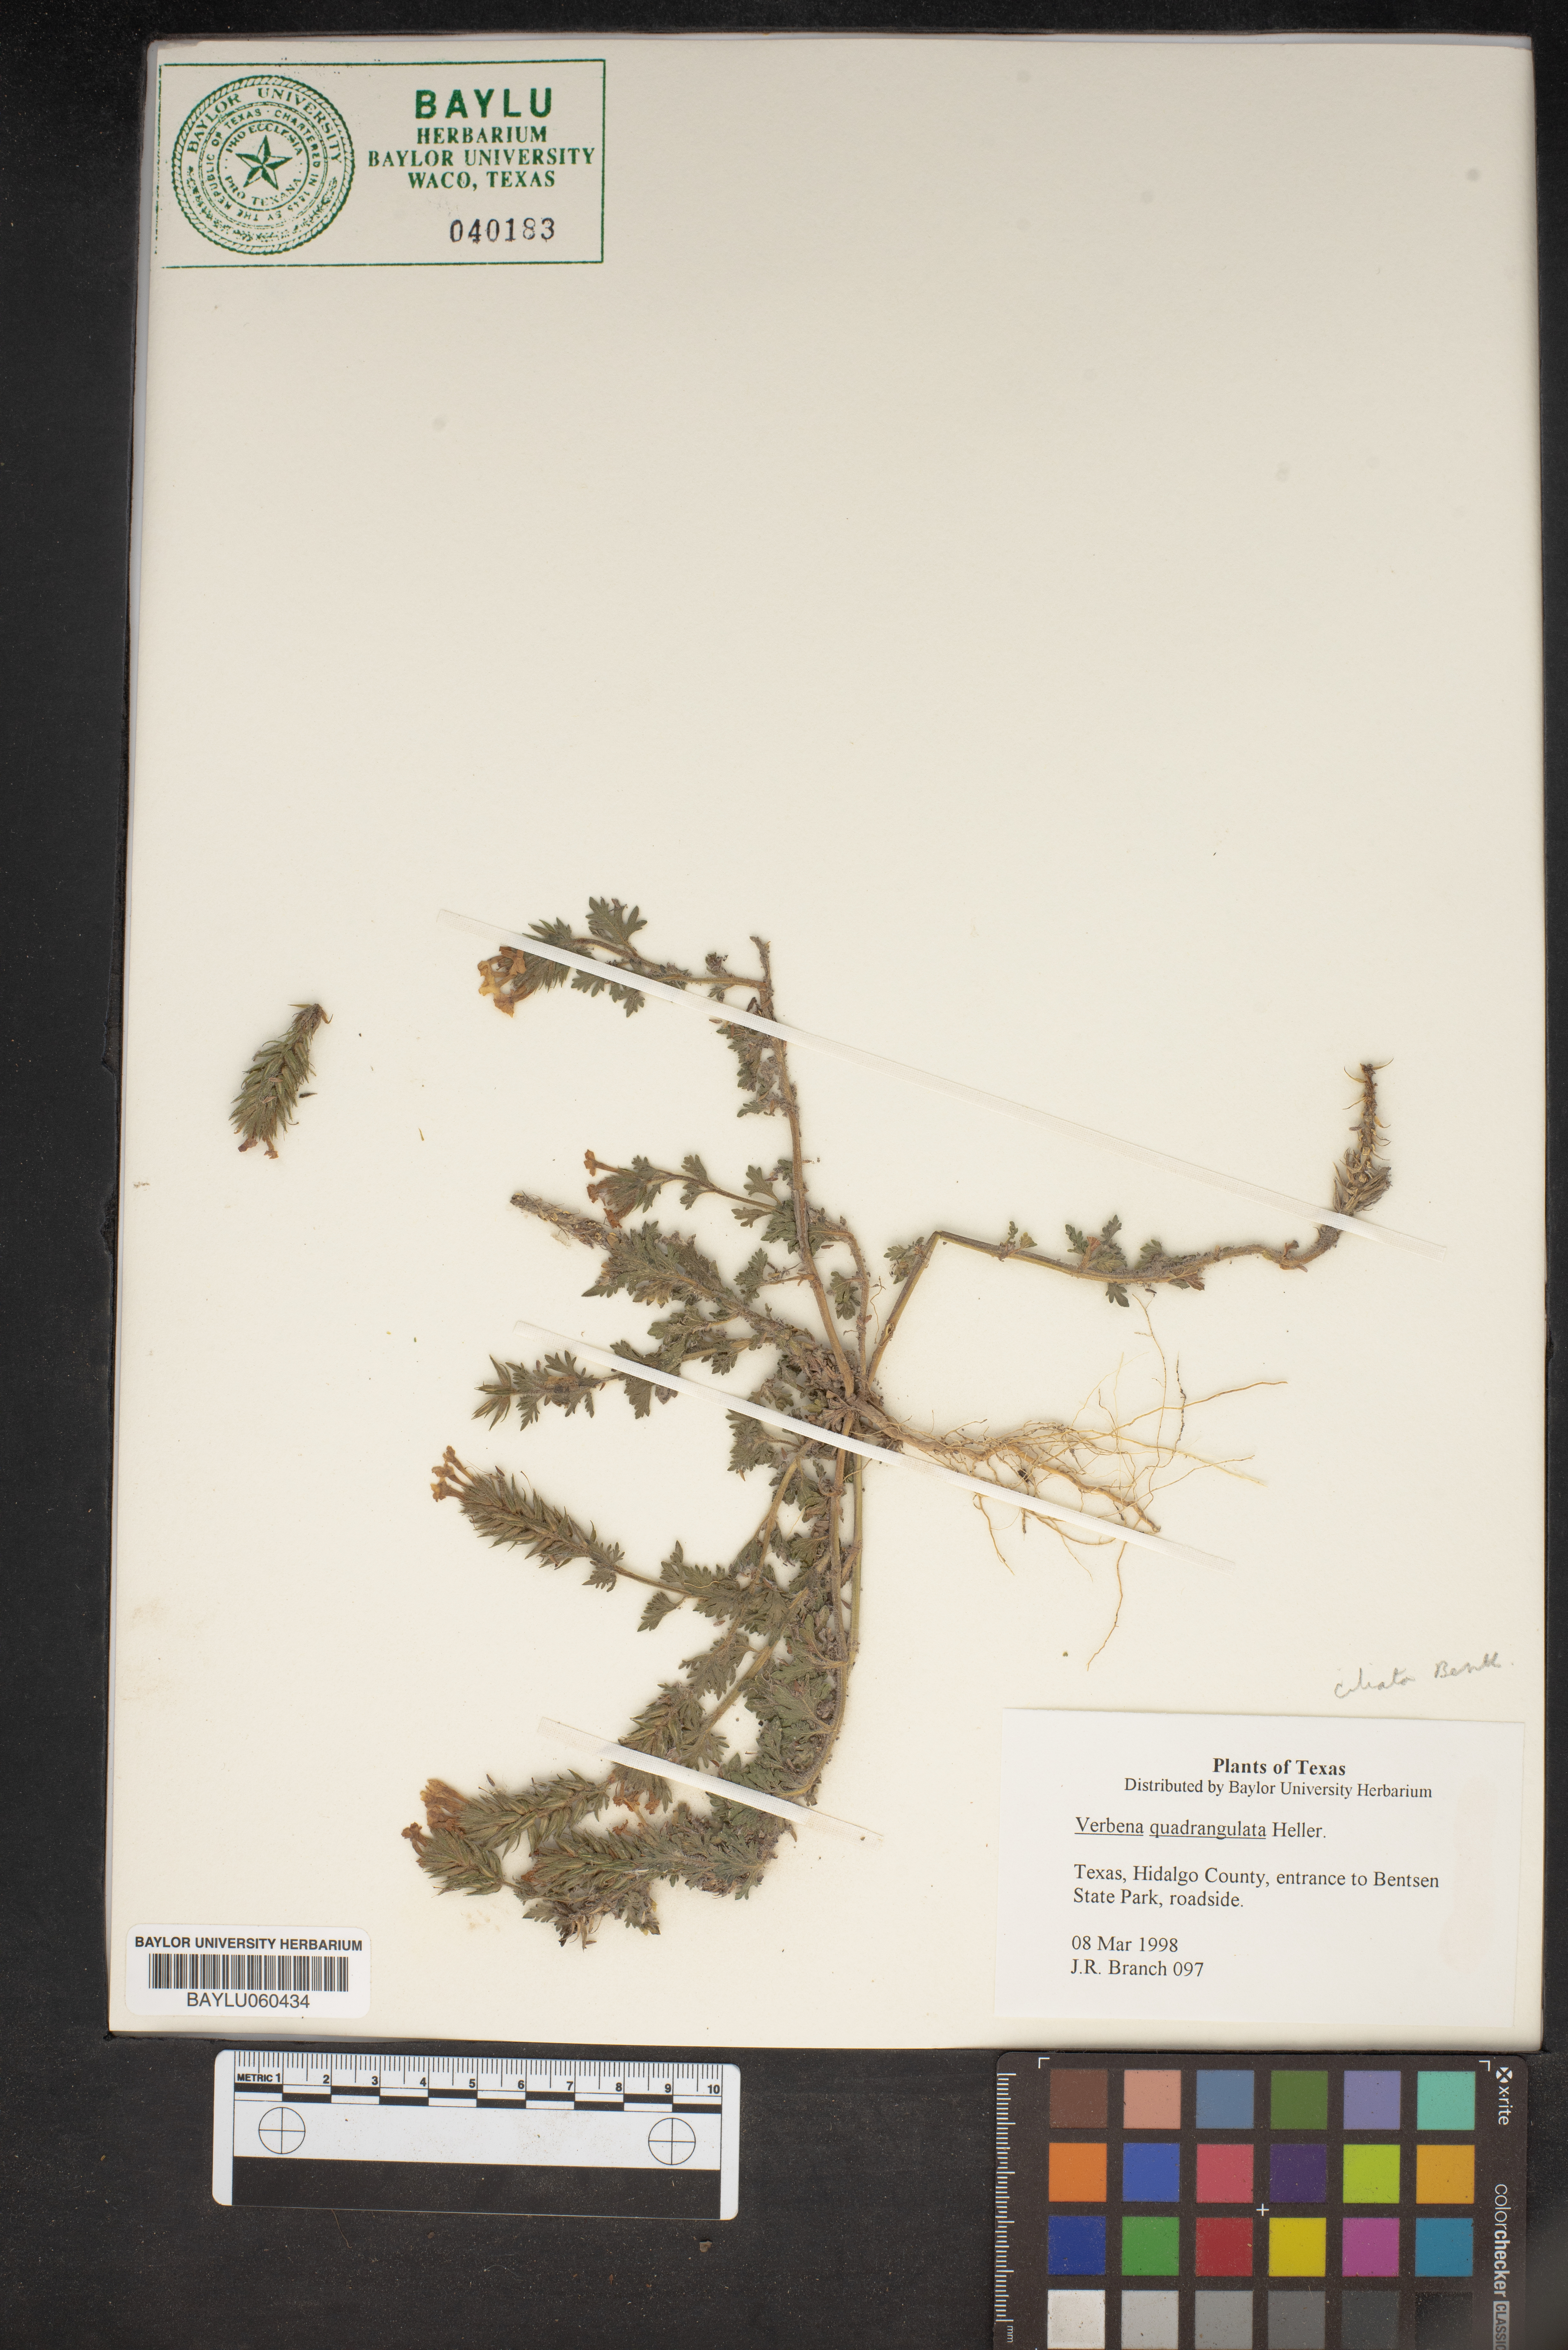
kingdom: Plantae
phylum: Tracheophyta
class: Magnoliopsida
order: Lamiales
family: Verbenaceae
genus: Verbena
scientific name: Verbena quadrangulata
